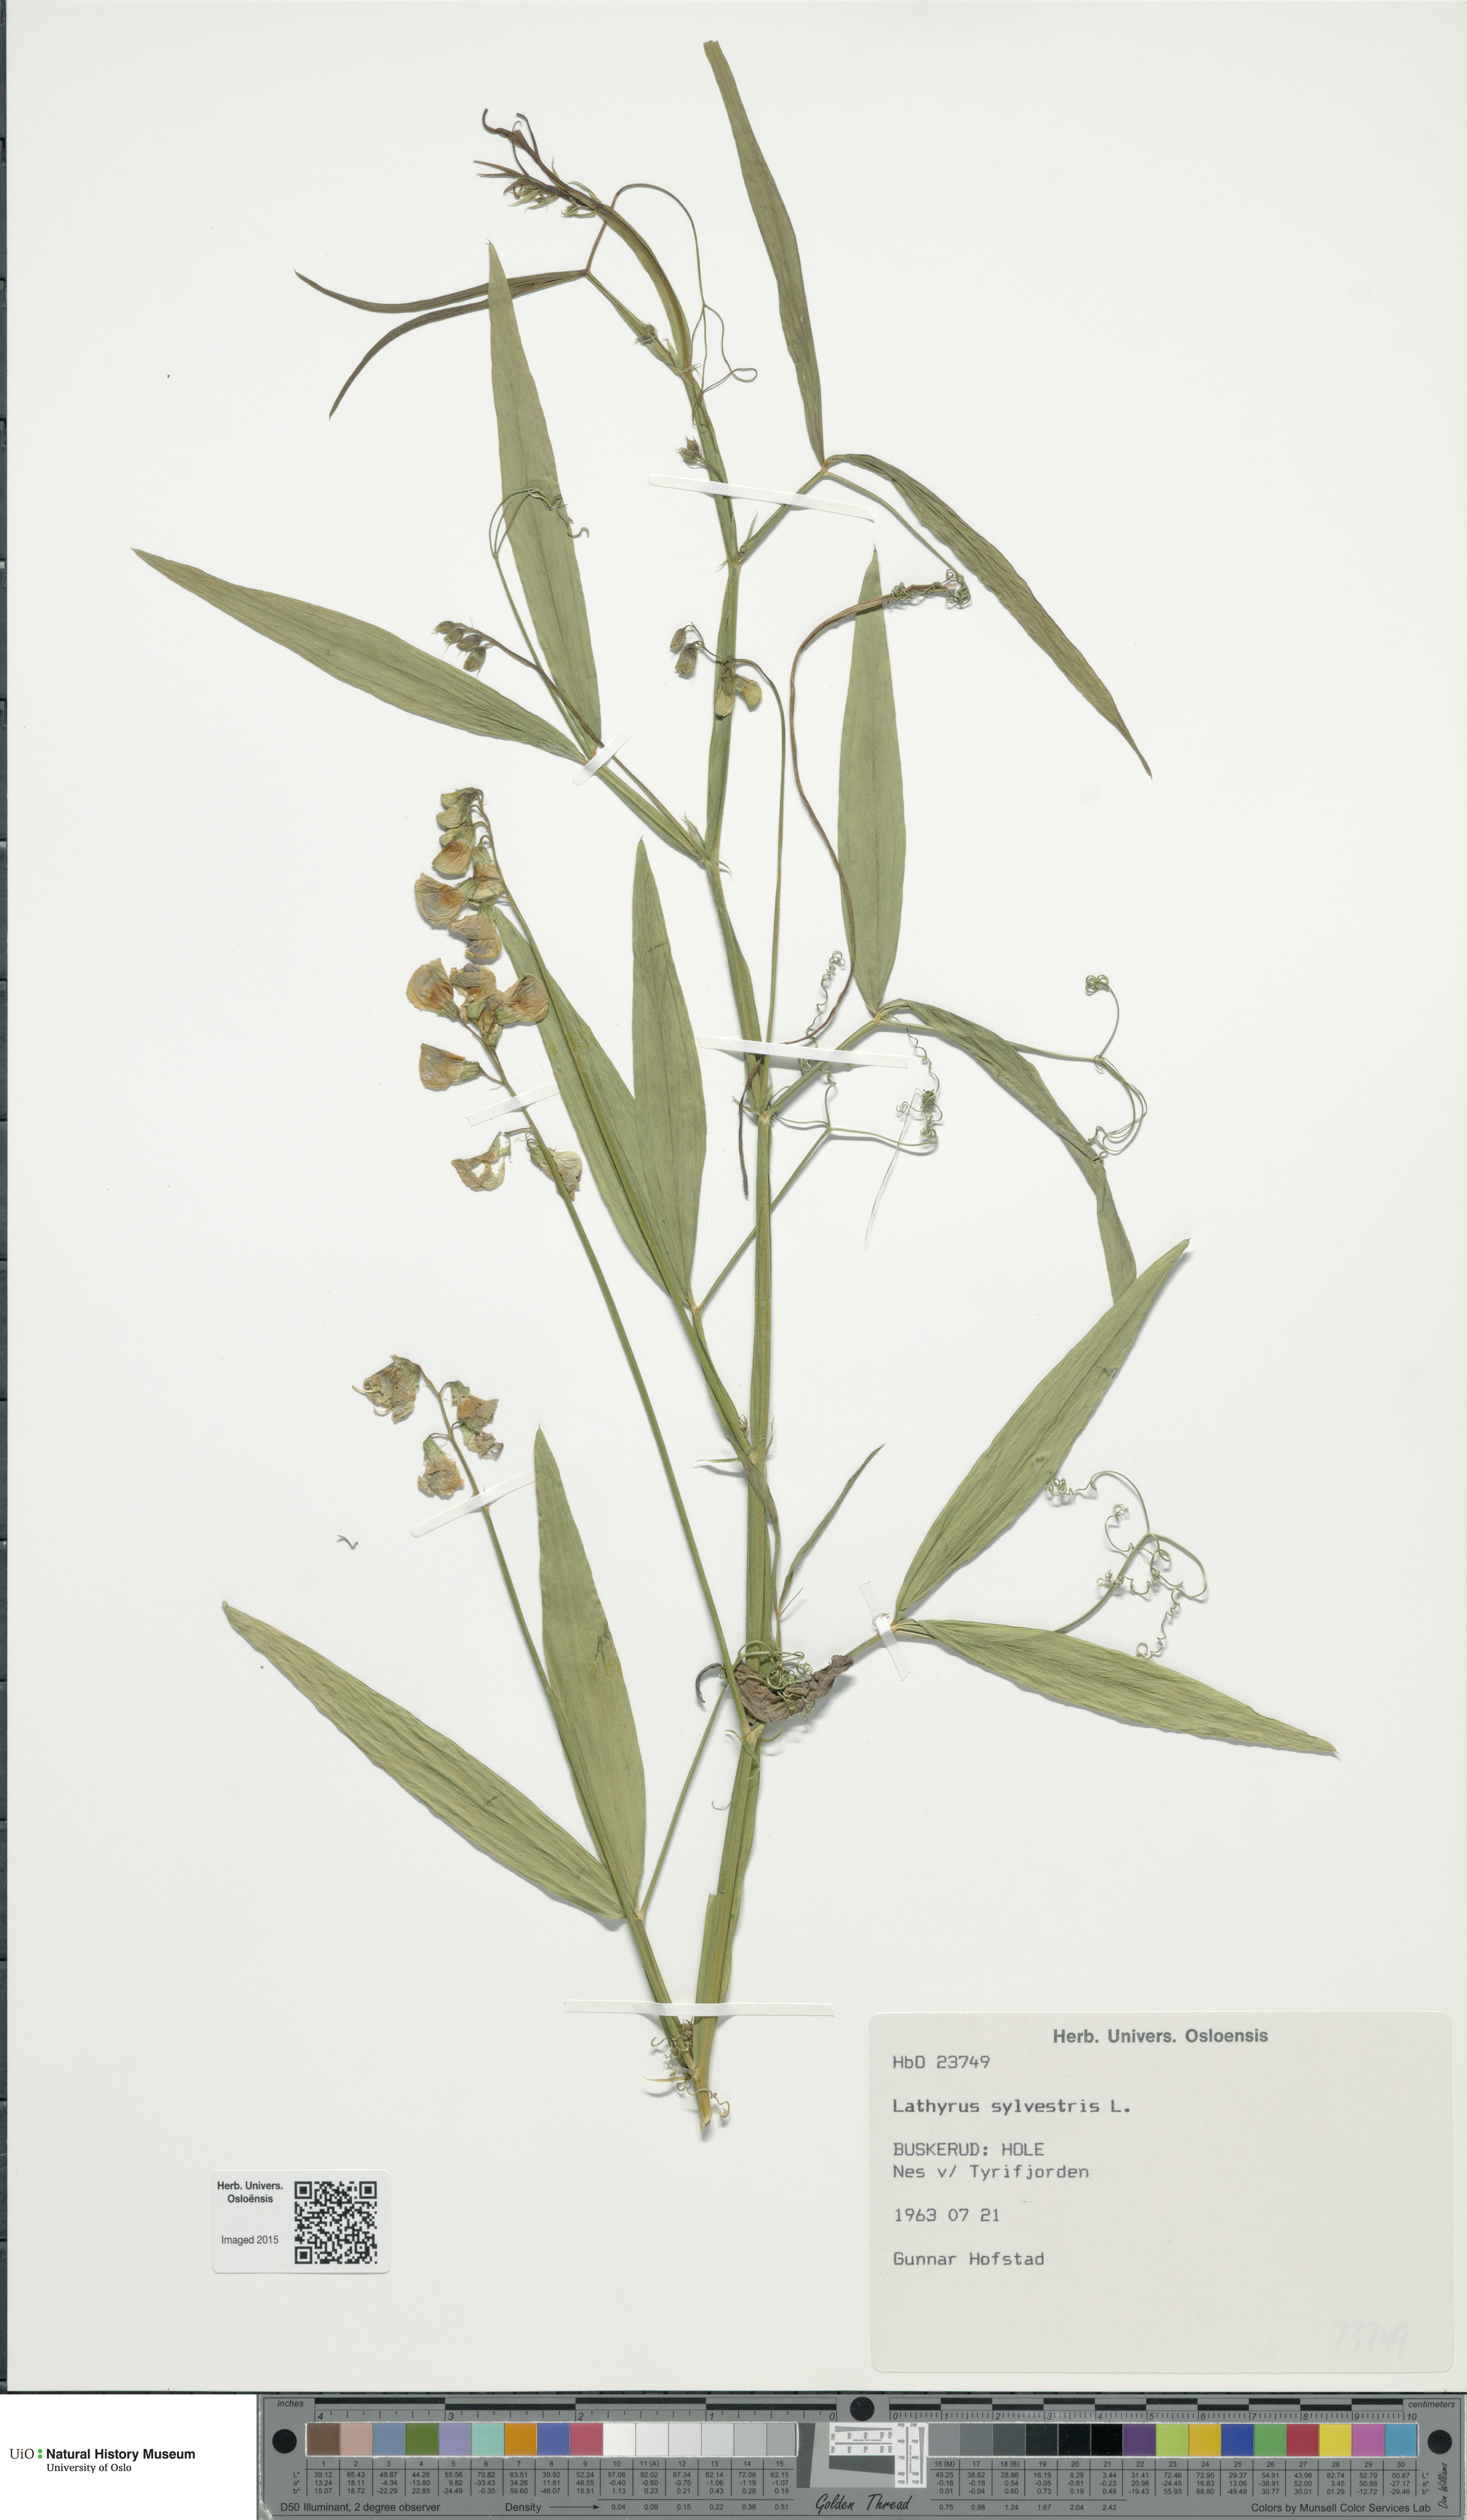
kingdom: Plantae
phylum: Tracheophyta
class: Magnoliopsida
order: Fabales
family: Fabaceae
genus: Lathyrus
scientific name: Lathyrus sylvestris
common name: Flat pea
